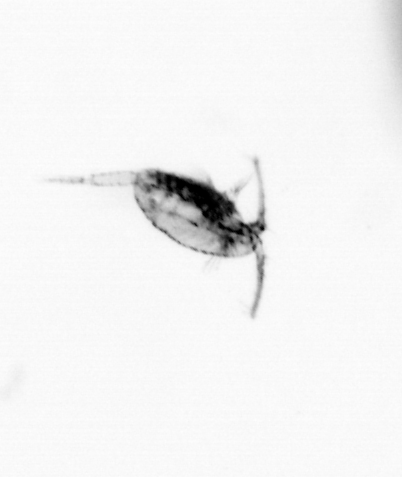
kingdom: Animalia
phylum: Arthropoda
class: Copepoda
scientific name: Copepoda
